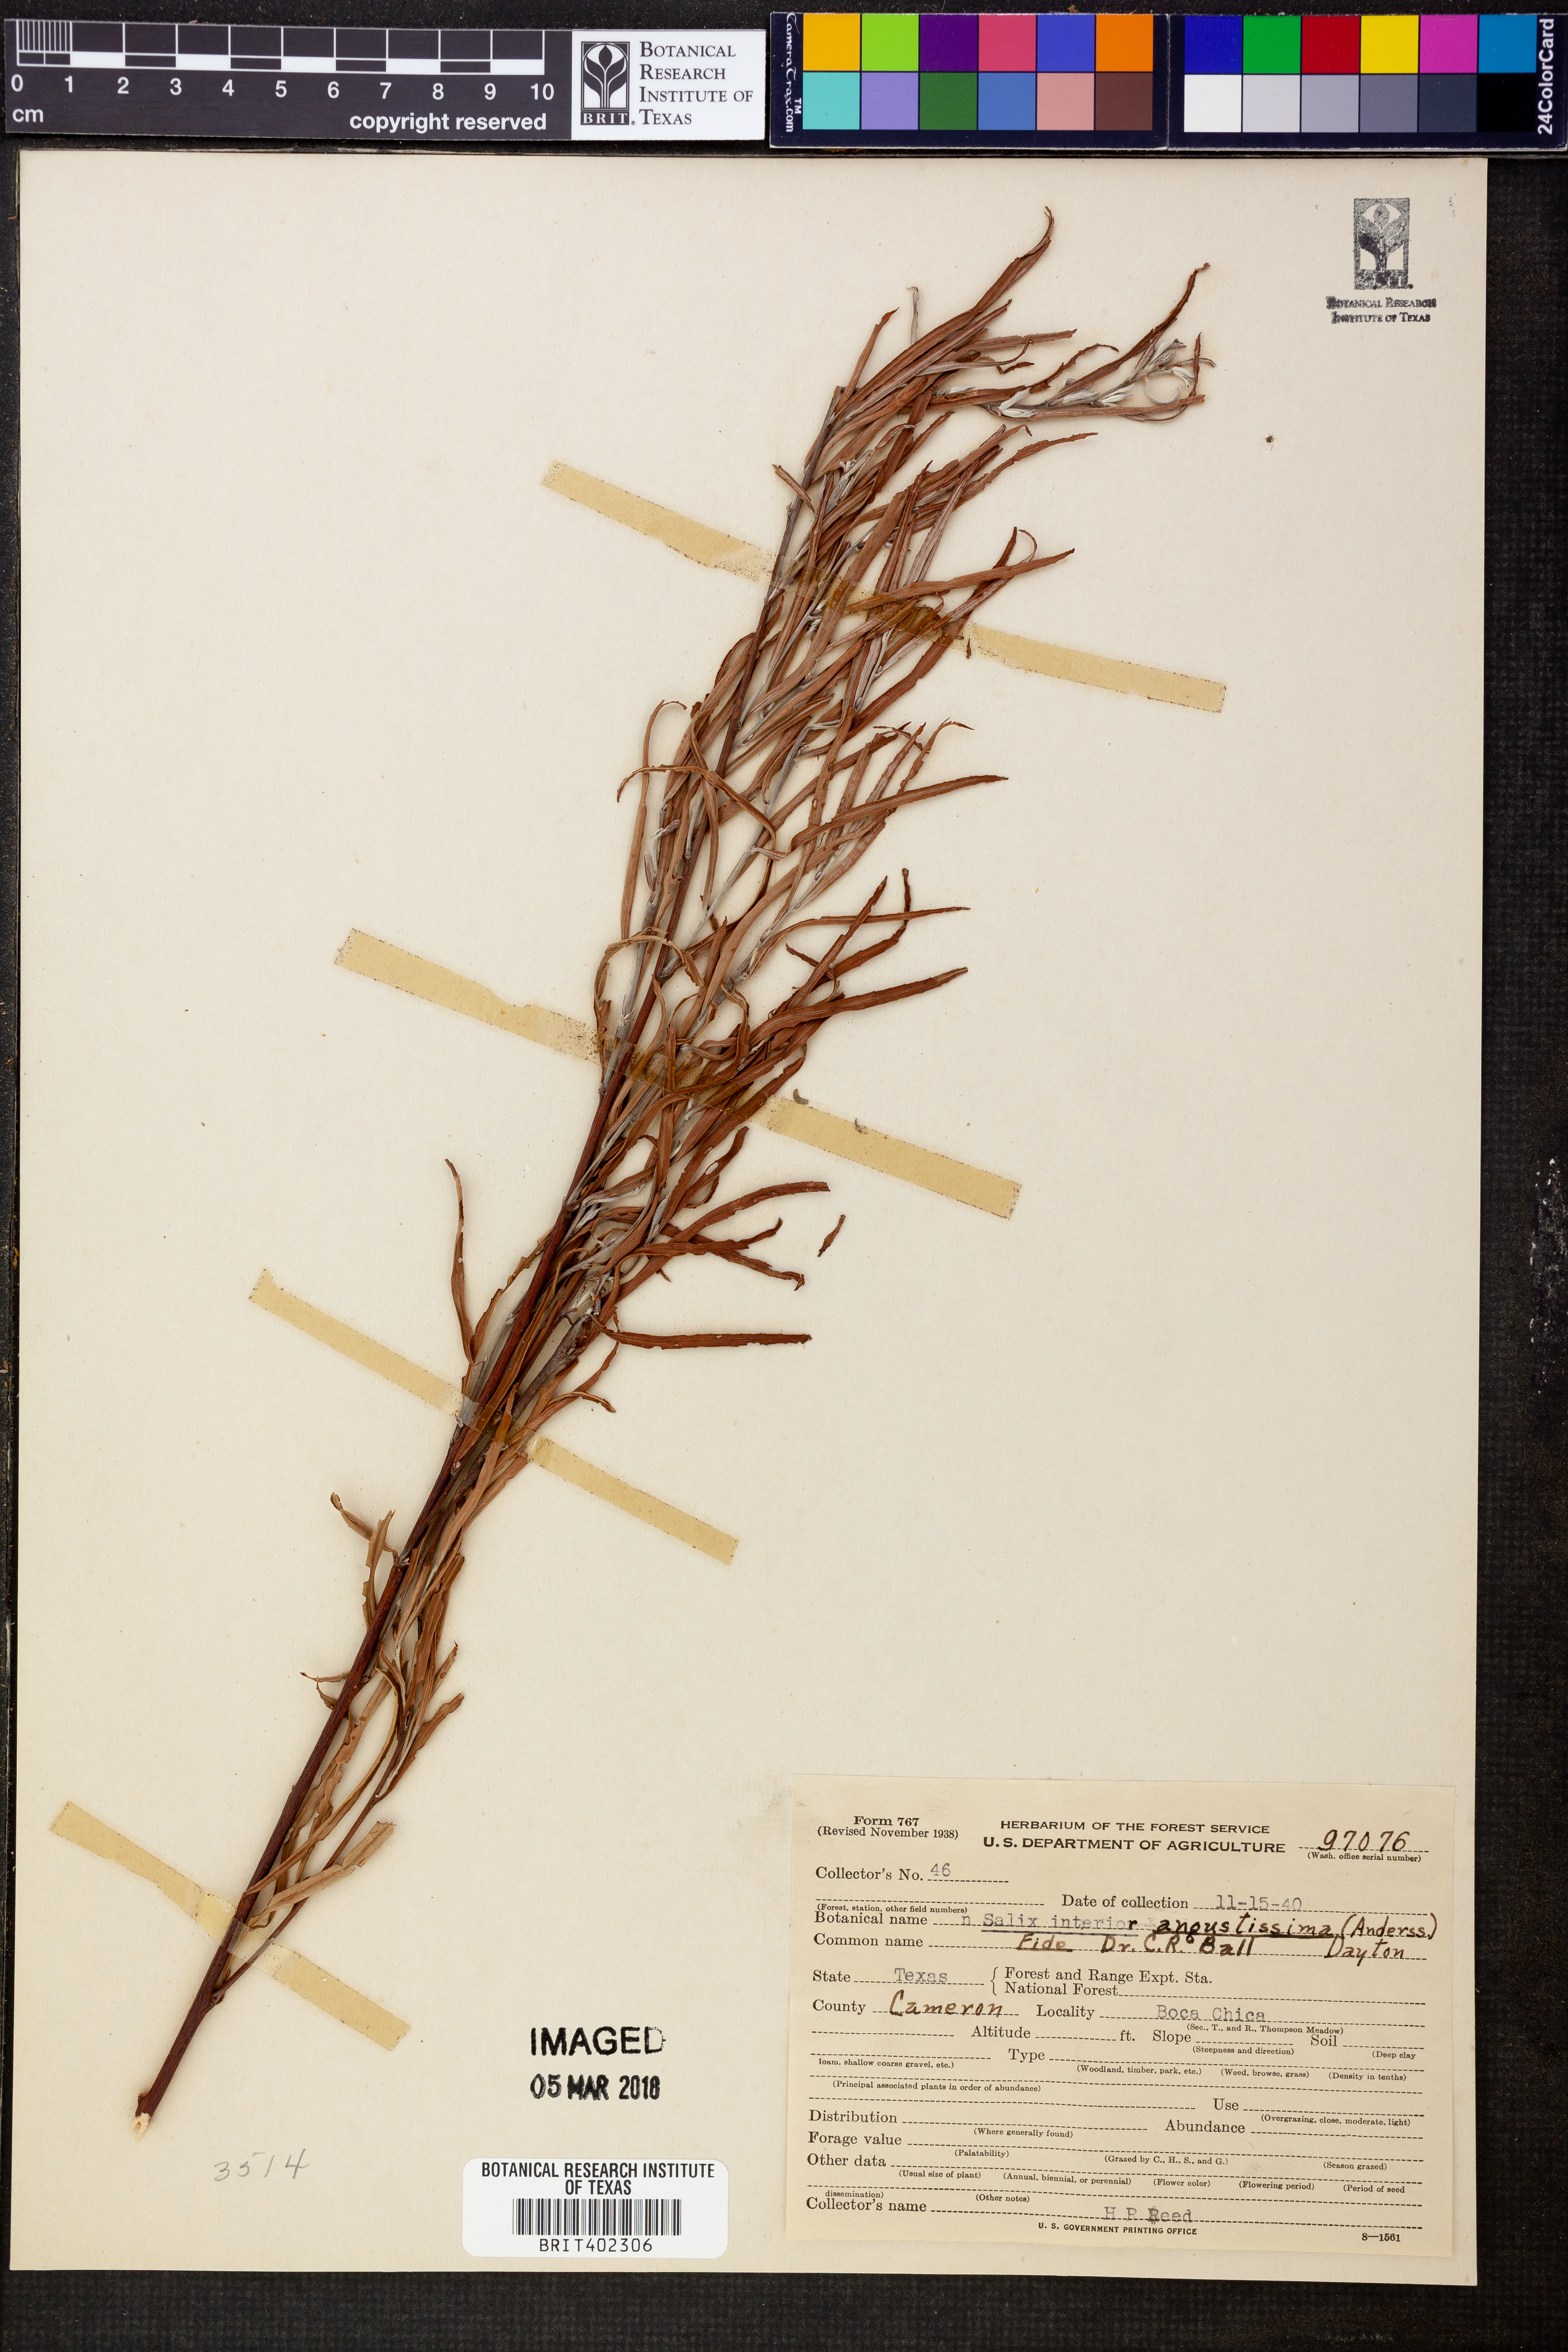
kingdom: Plantae
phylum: Tracheophyta
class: Magnoliopsida
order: Malpighiales
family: Salicaceae
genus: Salix
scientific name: Salix exigua
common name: Coyote willow
